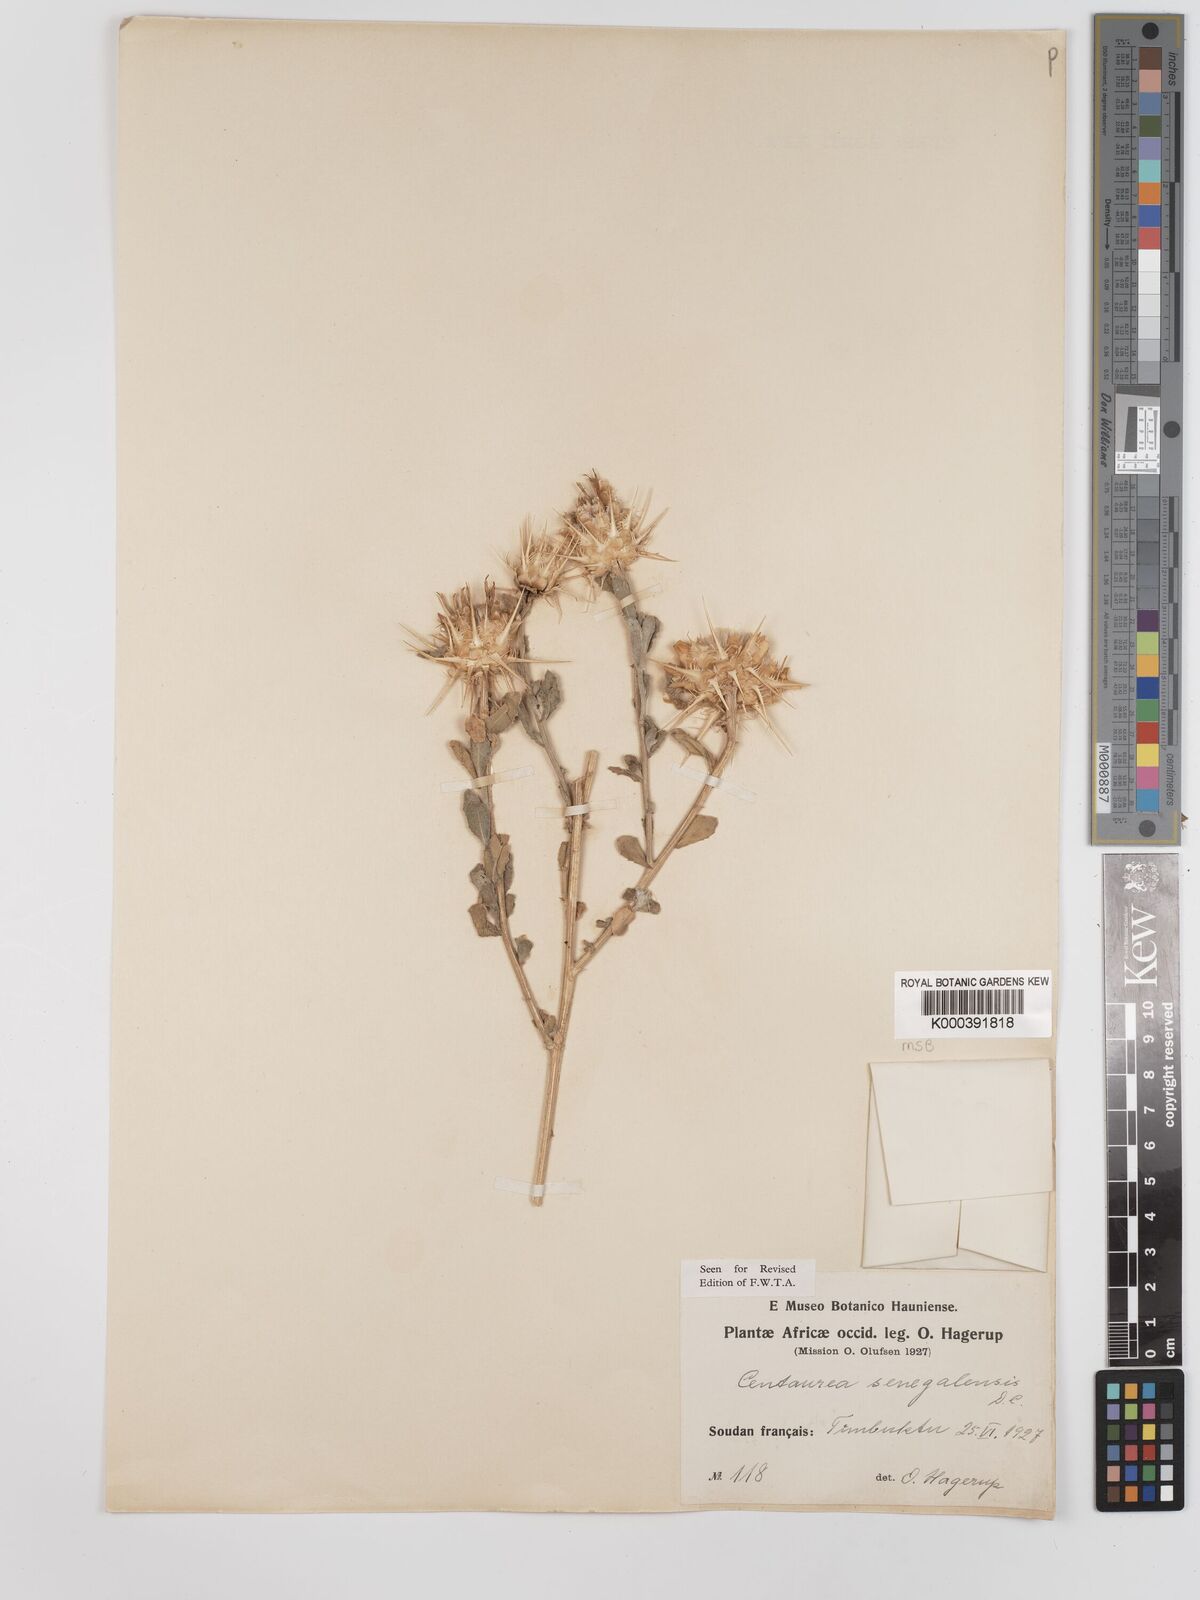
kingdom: Plantae
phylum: Tracheophyta
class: Magnoliopsida
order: Asterales
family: Asteraceae
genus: Centaurea
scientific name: Centaurea senegalensis
